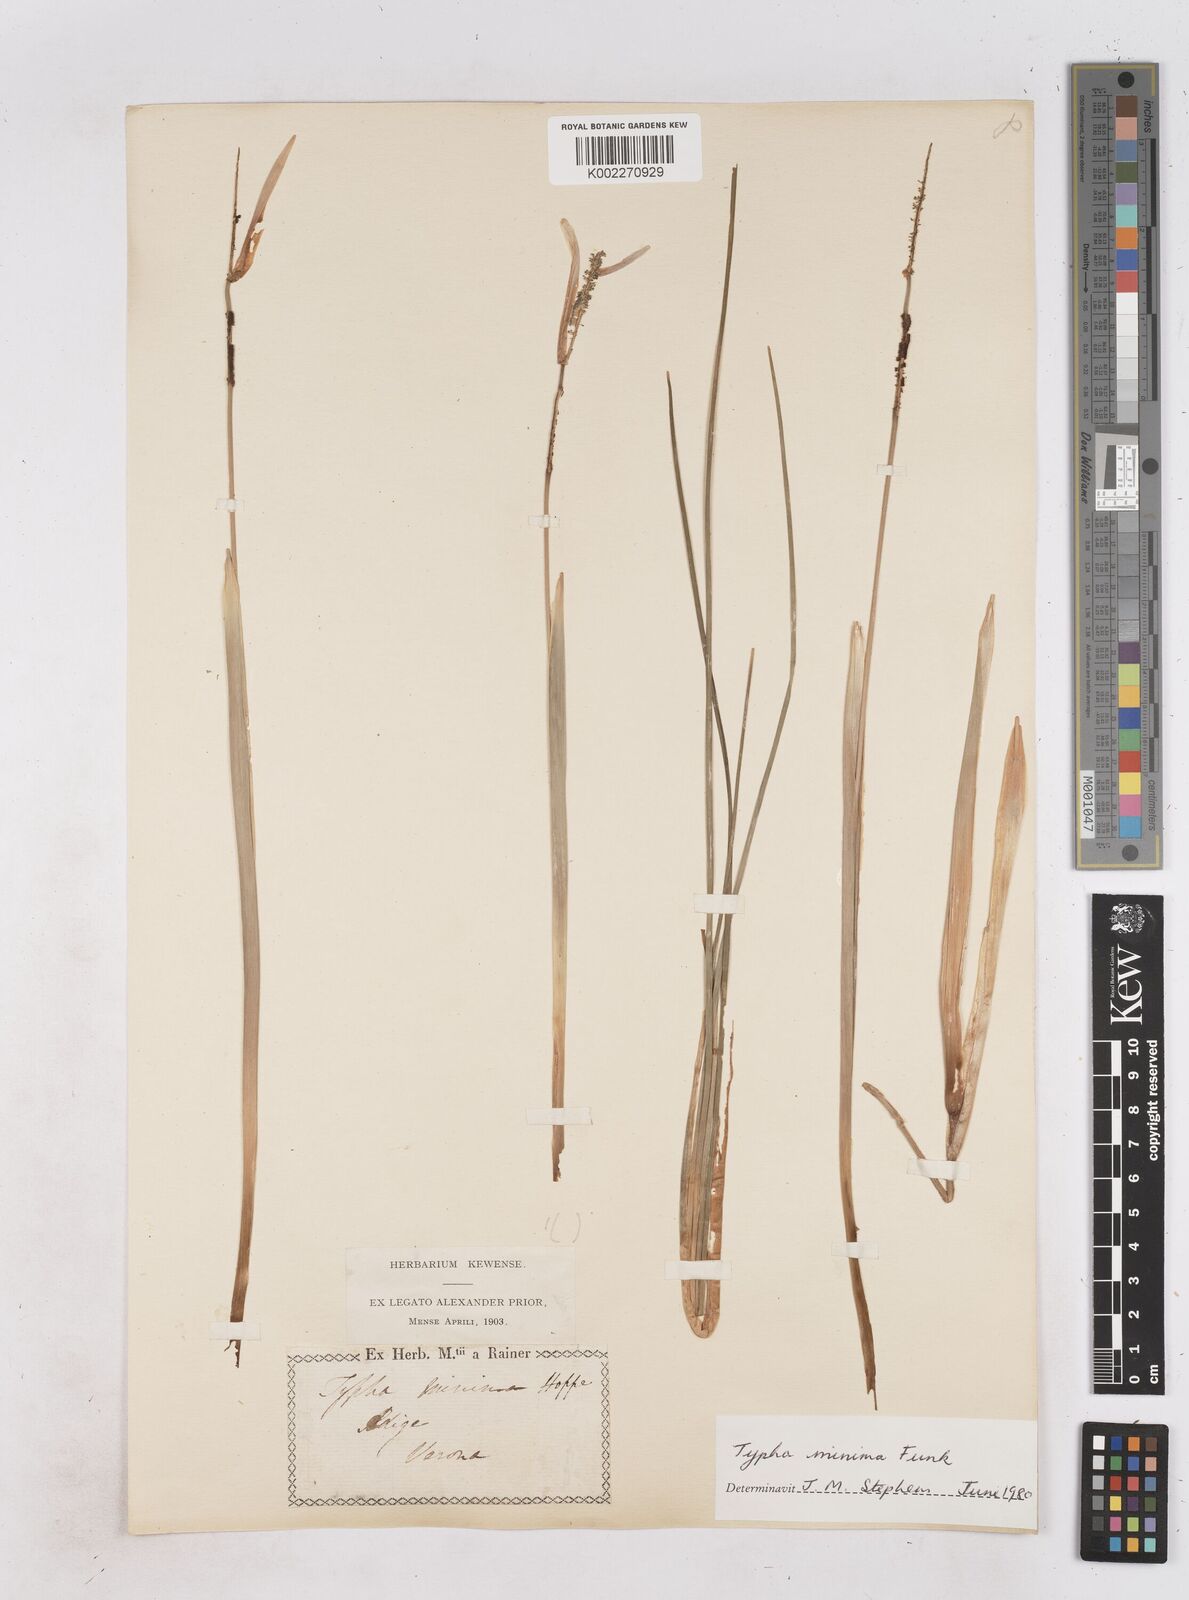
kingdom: Plantae
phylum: Tracheophyta
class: Liliopsida
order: Poales
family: Typhaceae
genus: Typha
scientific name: Typha minima
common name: Dwarf bulrush
